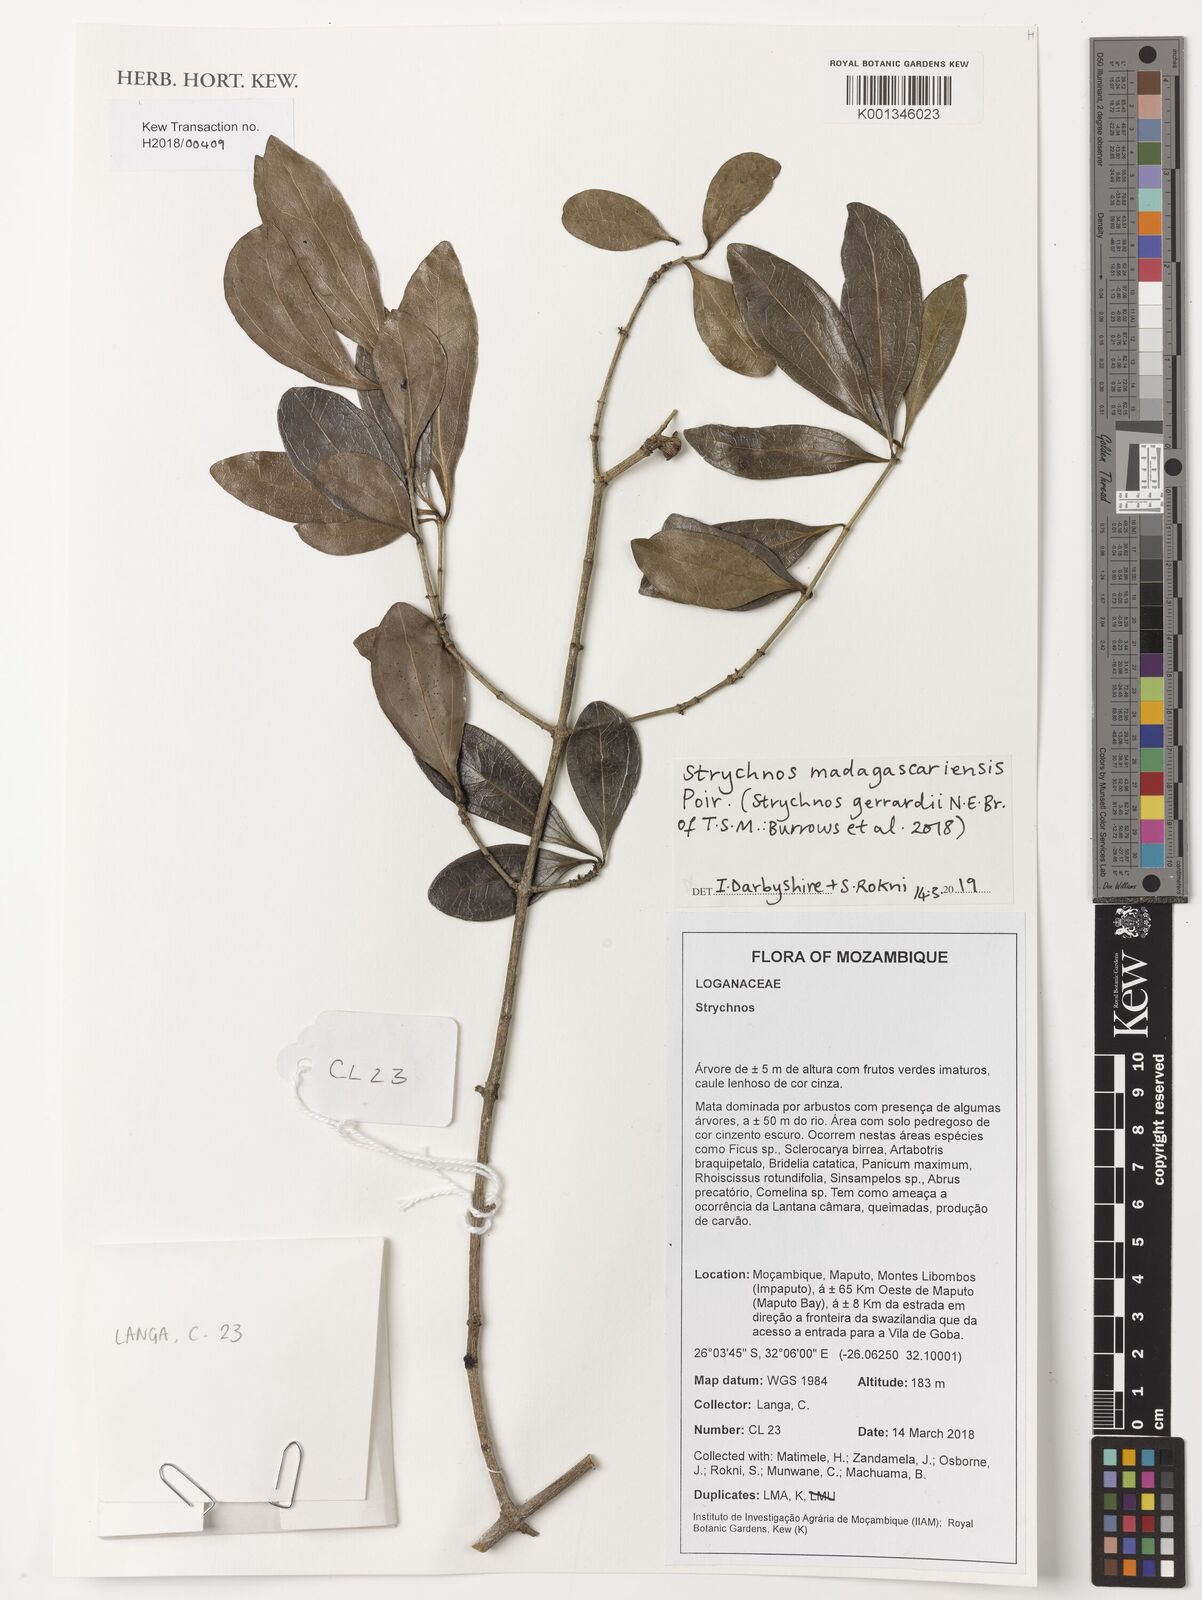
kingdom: Plantae
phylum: Tracheophyta
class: Magnoliopsida
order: Gentianales
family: Loganiaceae
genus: Strychnos
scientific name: Strychnos madagascariensis
